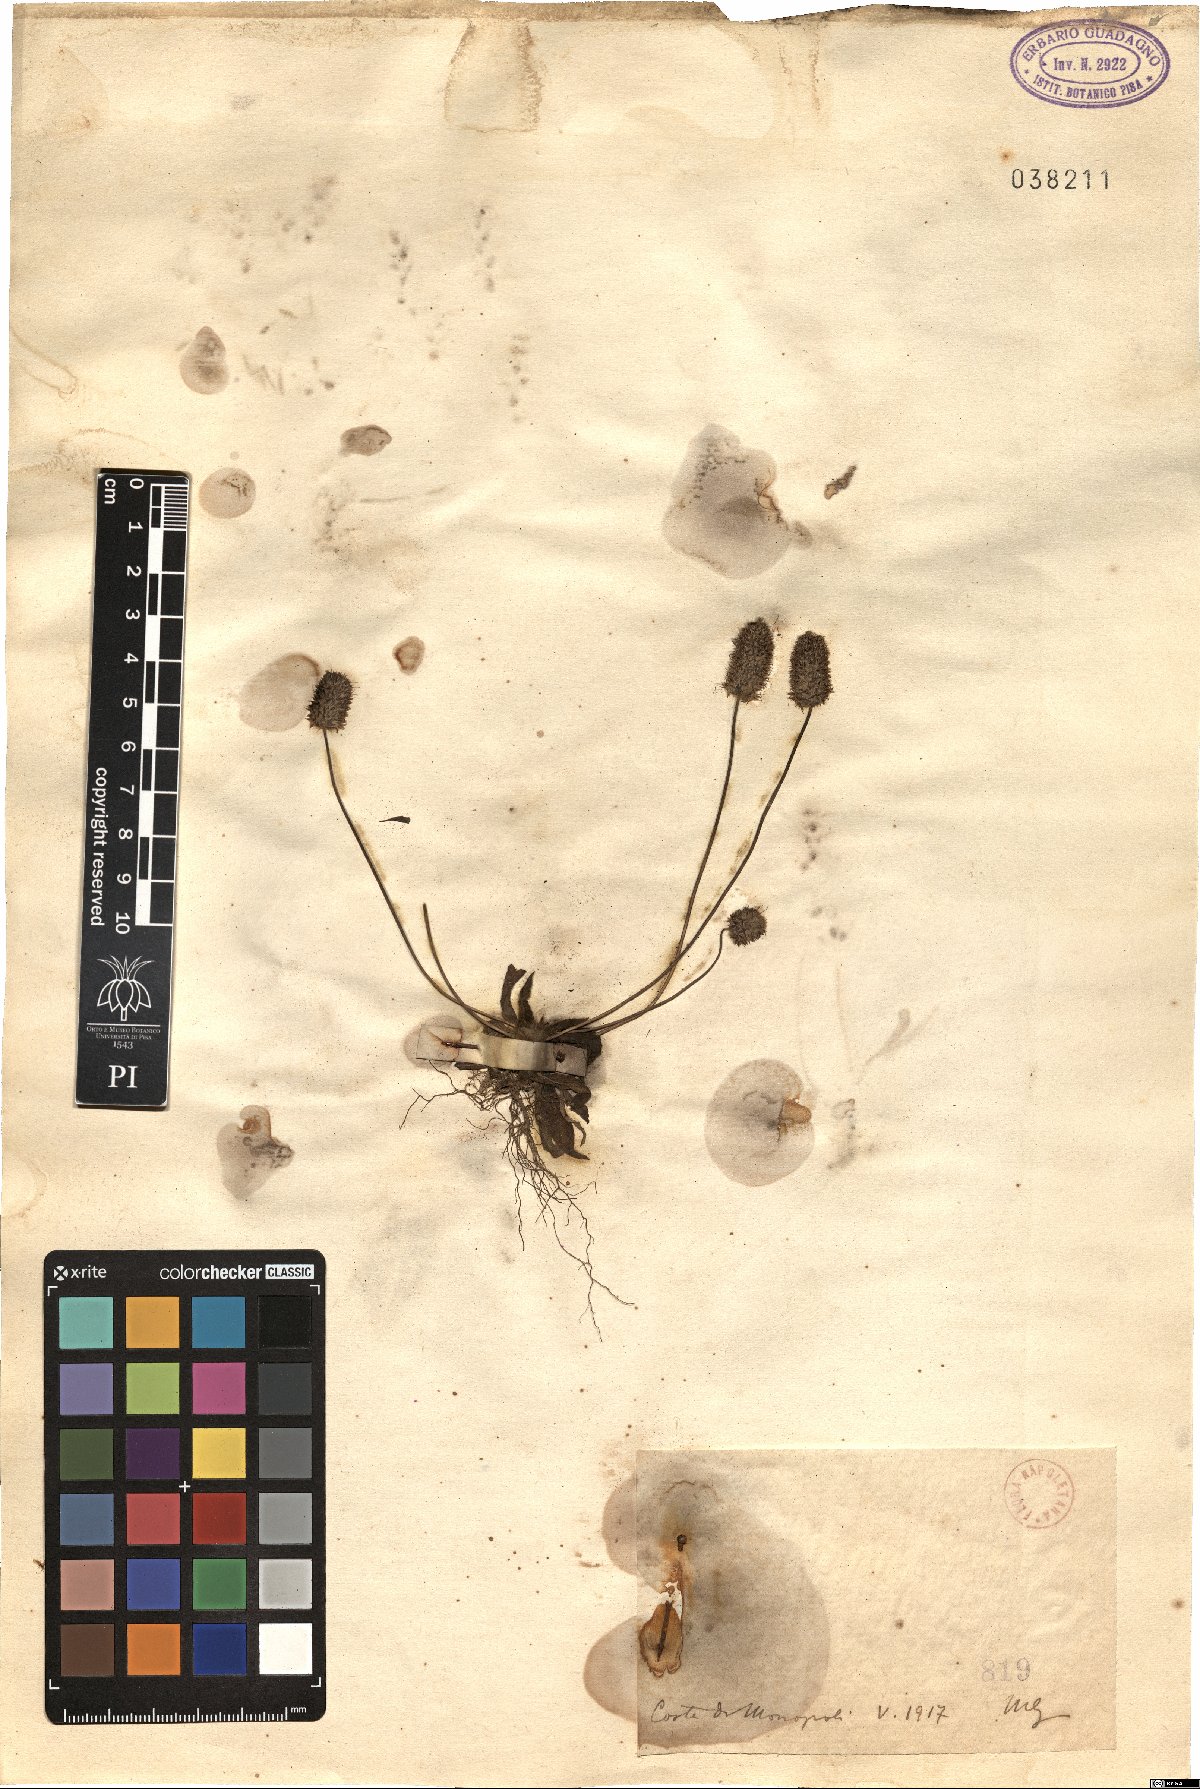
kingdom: Plantae
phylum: Tracheophyta
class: Magnoliopsida
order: Lamiales
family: Plantaginaceae
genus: Plantago
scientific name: Plantago
